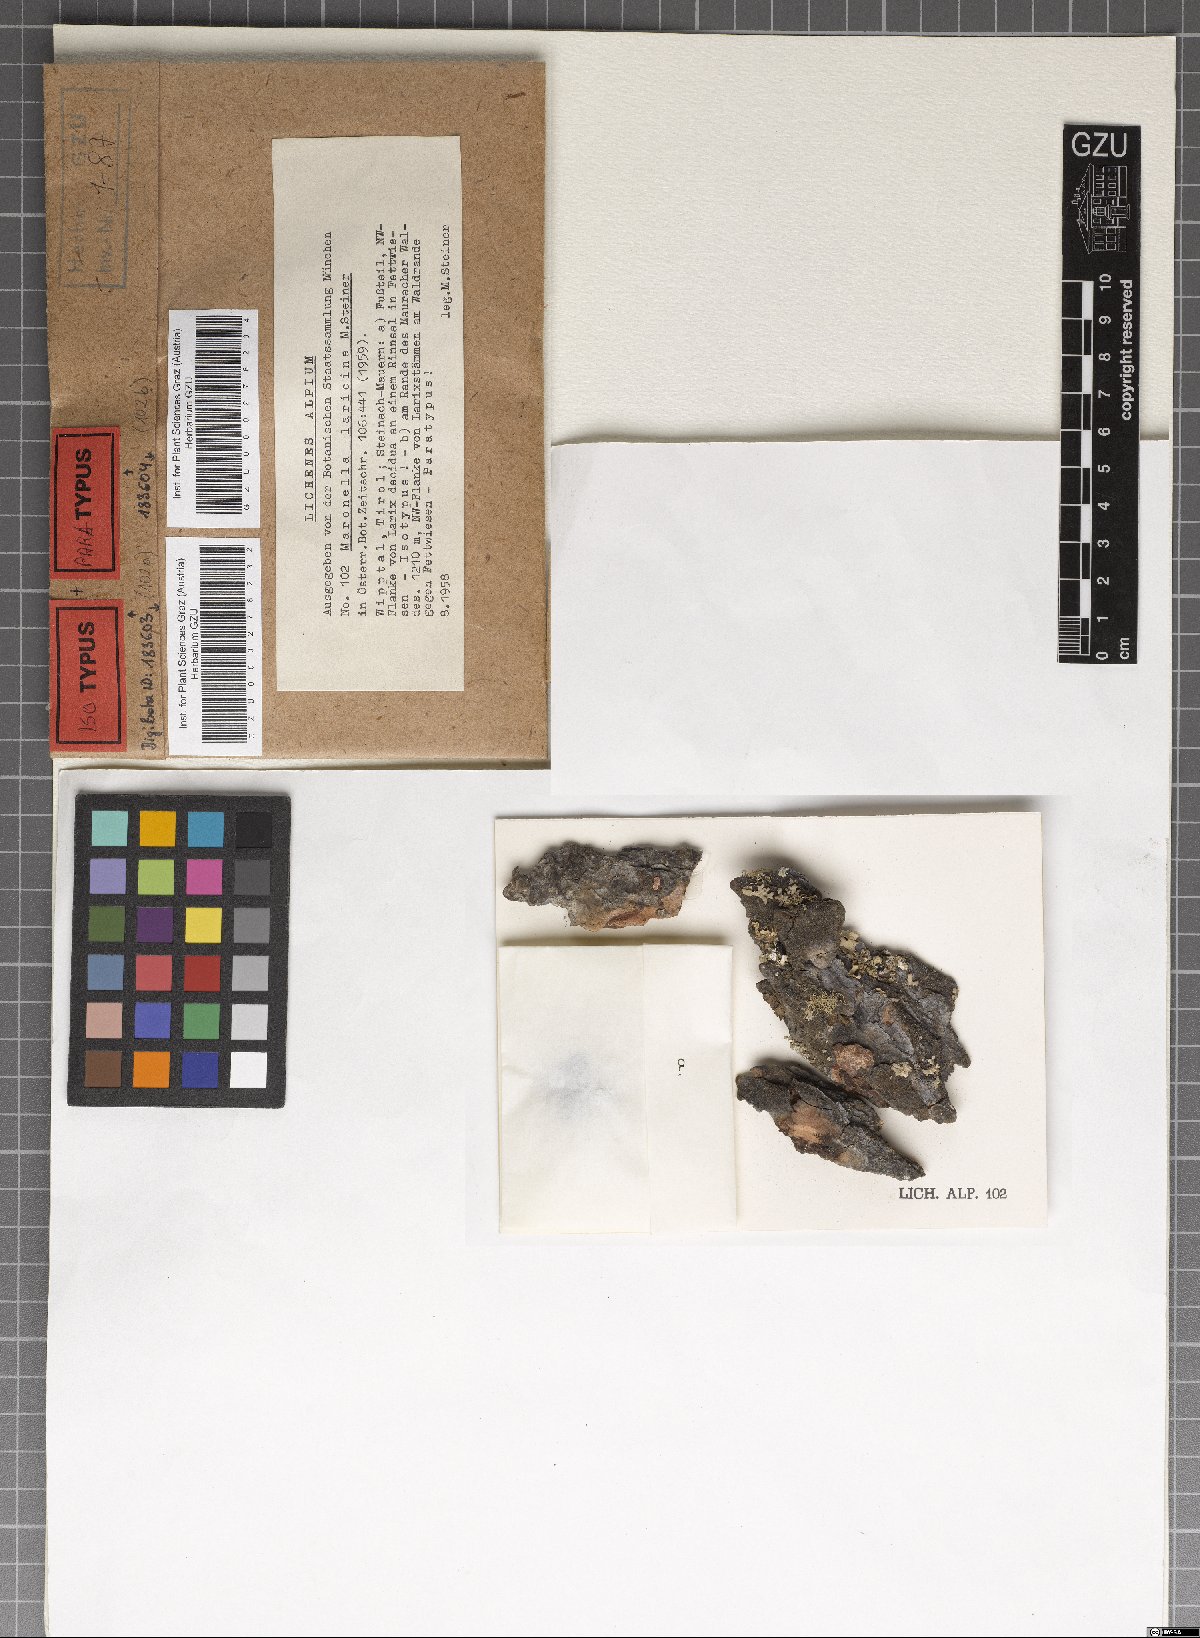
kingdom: Fungi
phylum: Ascomycota
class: Lecanoromycetes
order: Acarosporales
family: Acarosporaceae
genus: Maronella
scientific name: Maronella laricina
